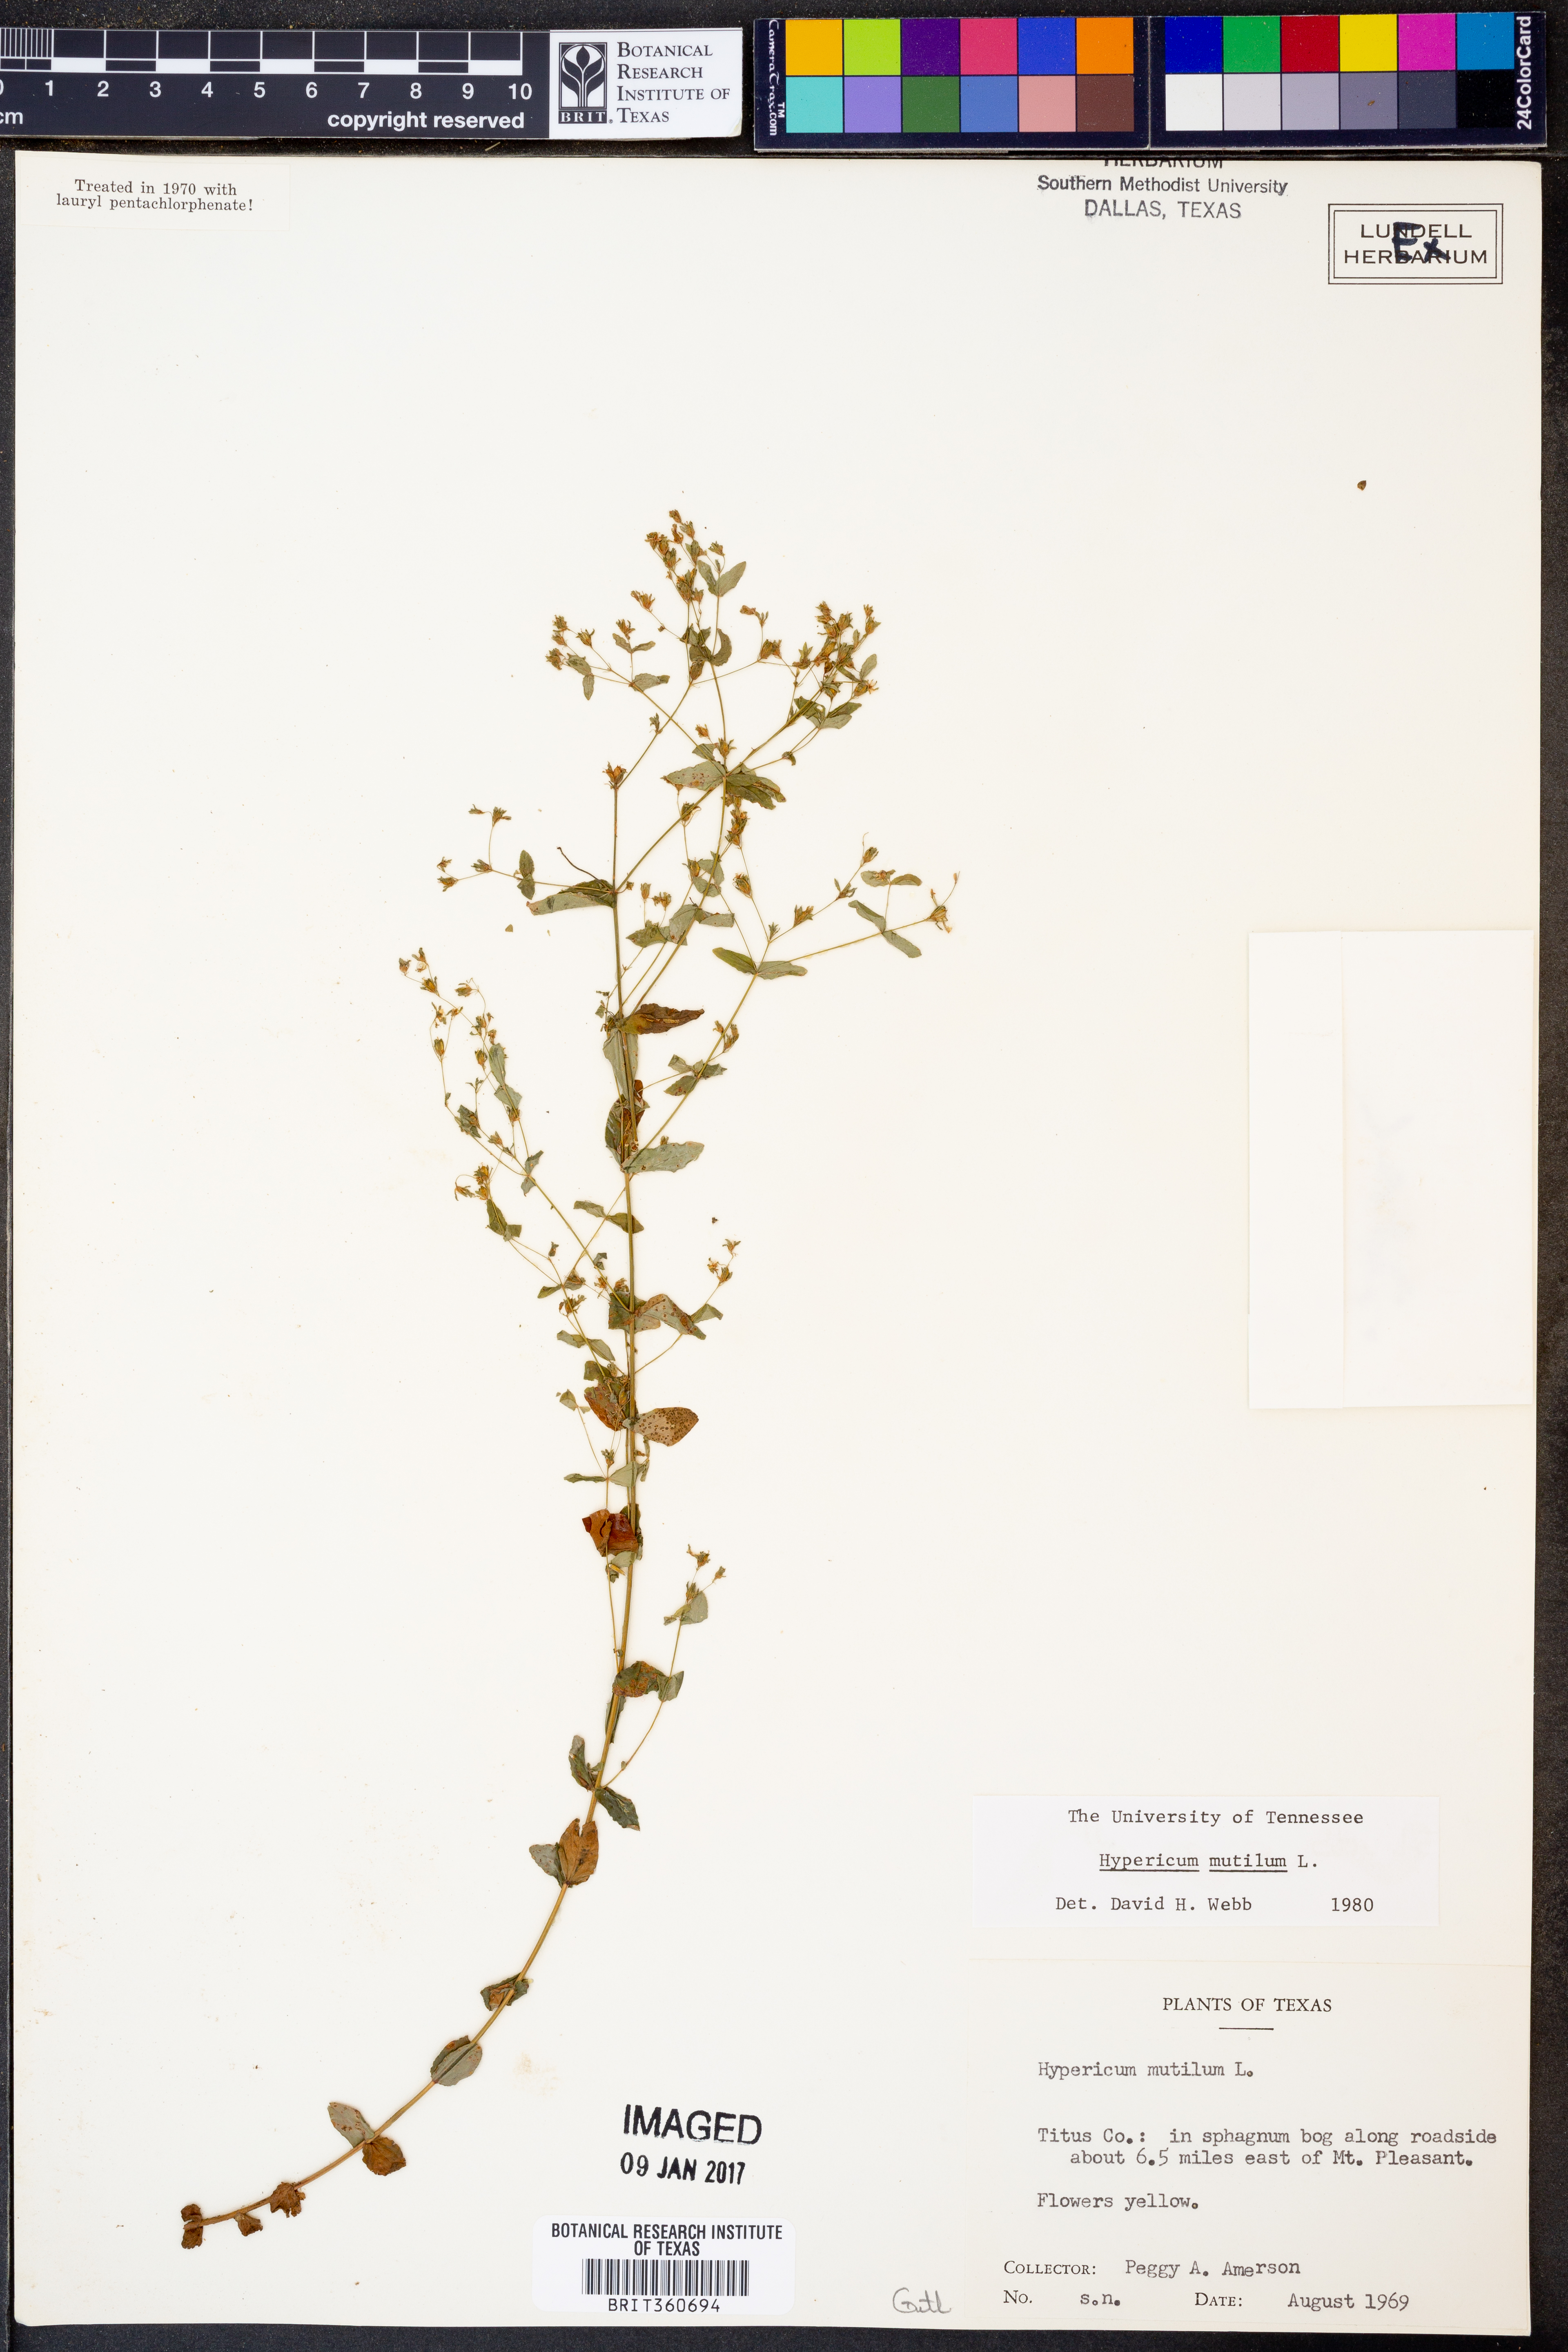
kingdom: Plantae
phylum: Tracheophyta
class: Magnoliopsida
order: Malpighiales
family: Hypericaceae
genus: Hypericum
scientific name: Hypericum mutilum
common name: Dwarf st. john's-wort
